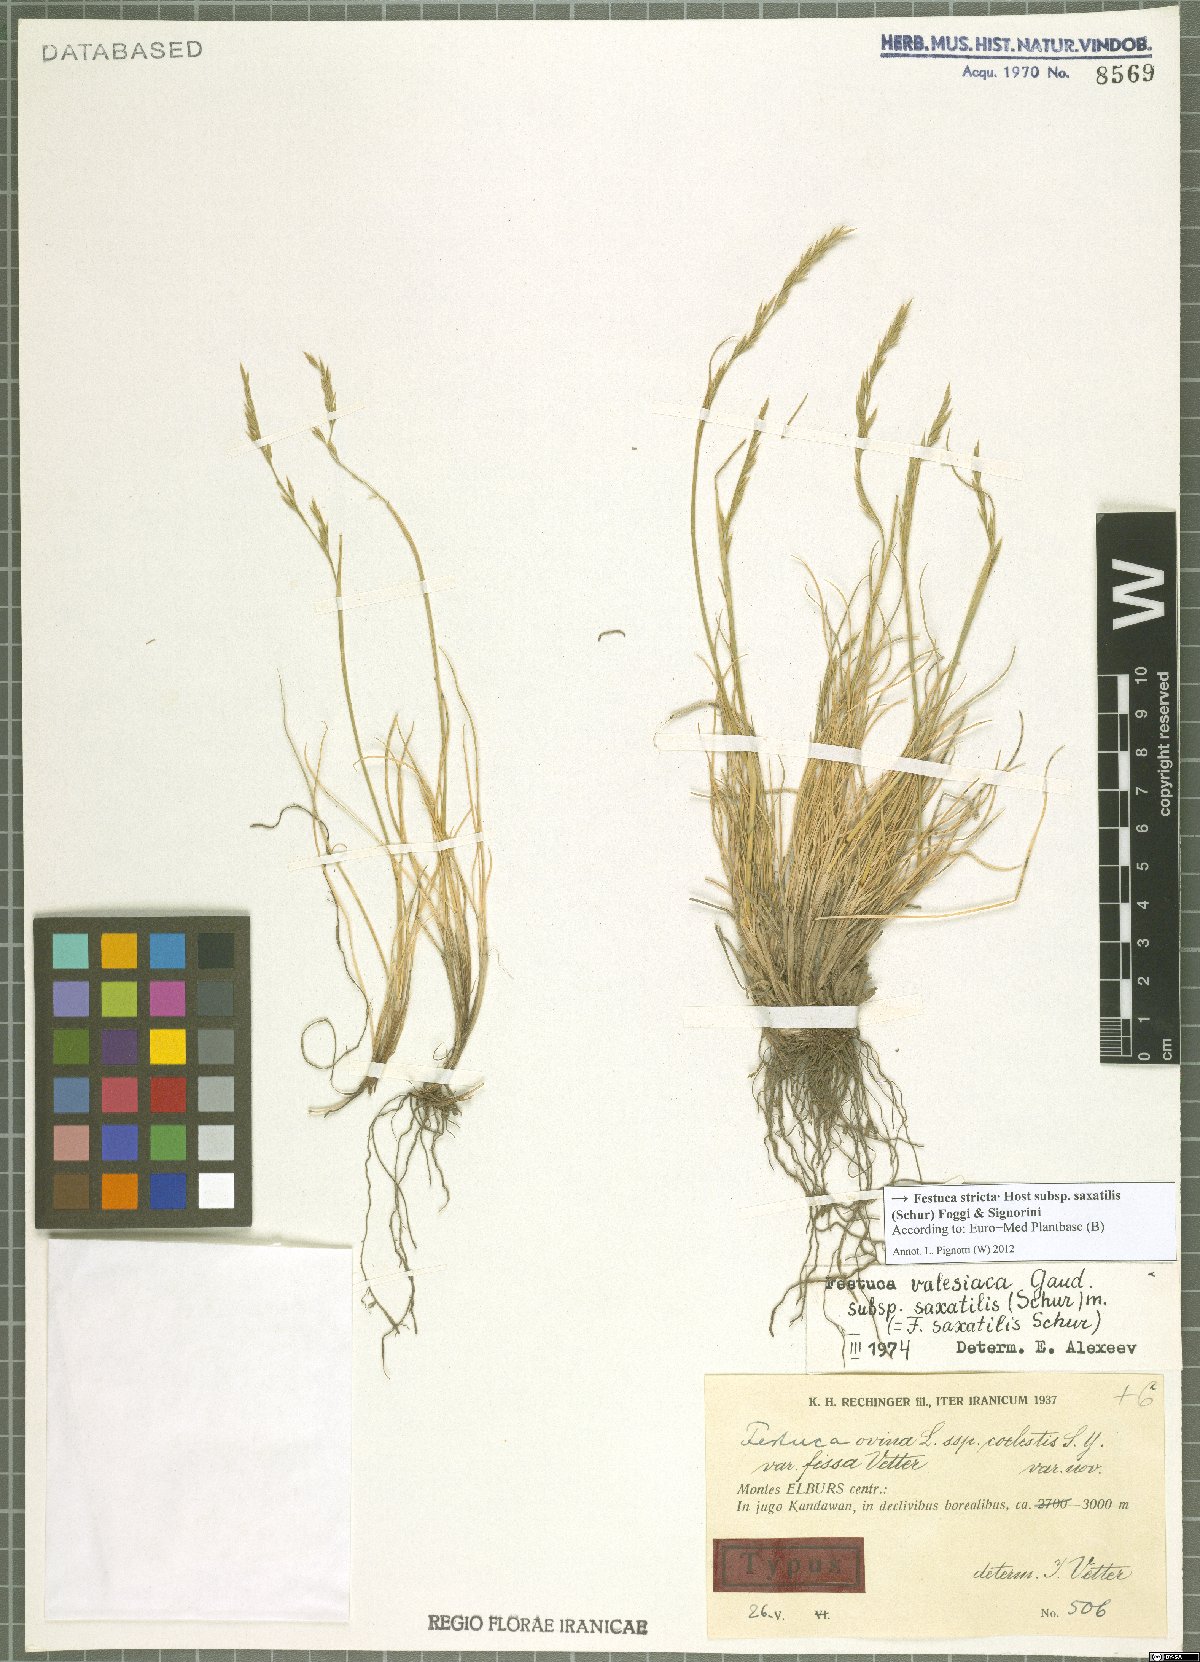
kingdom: Plantae
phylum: Tracheophyta
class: Liliopsida
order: Poales
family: Poaceae
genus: Festuca
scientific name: Festuca saxatilis
